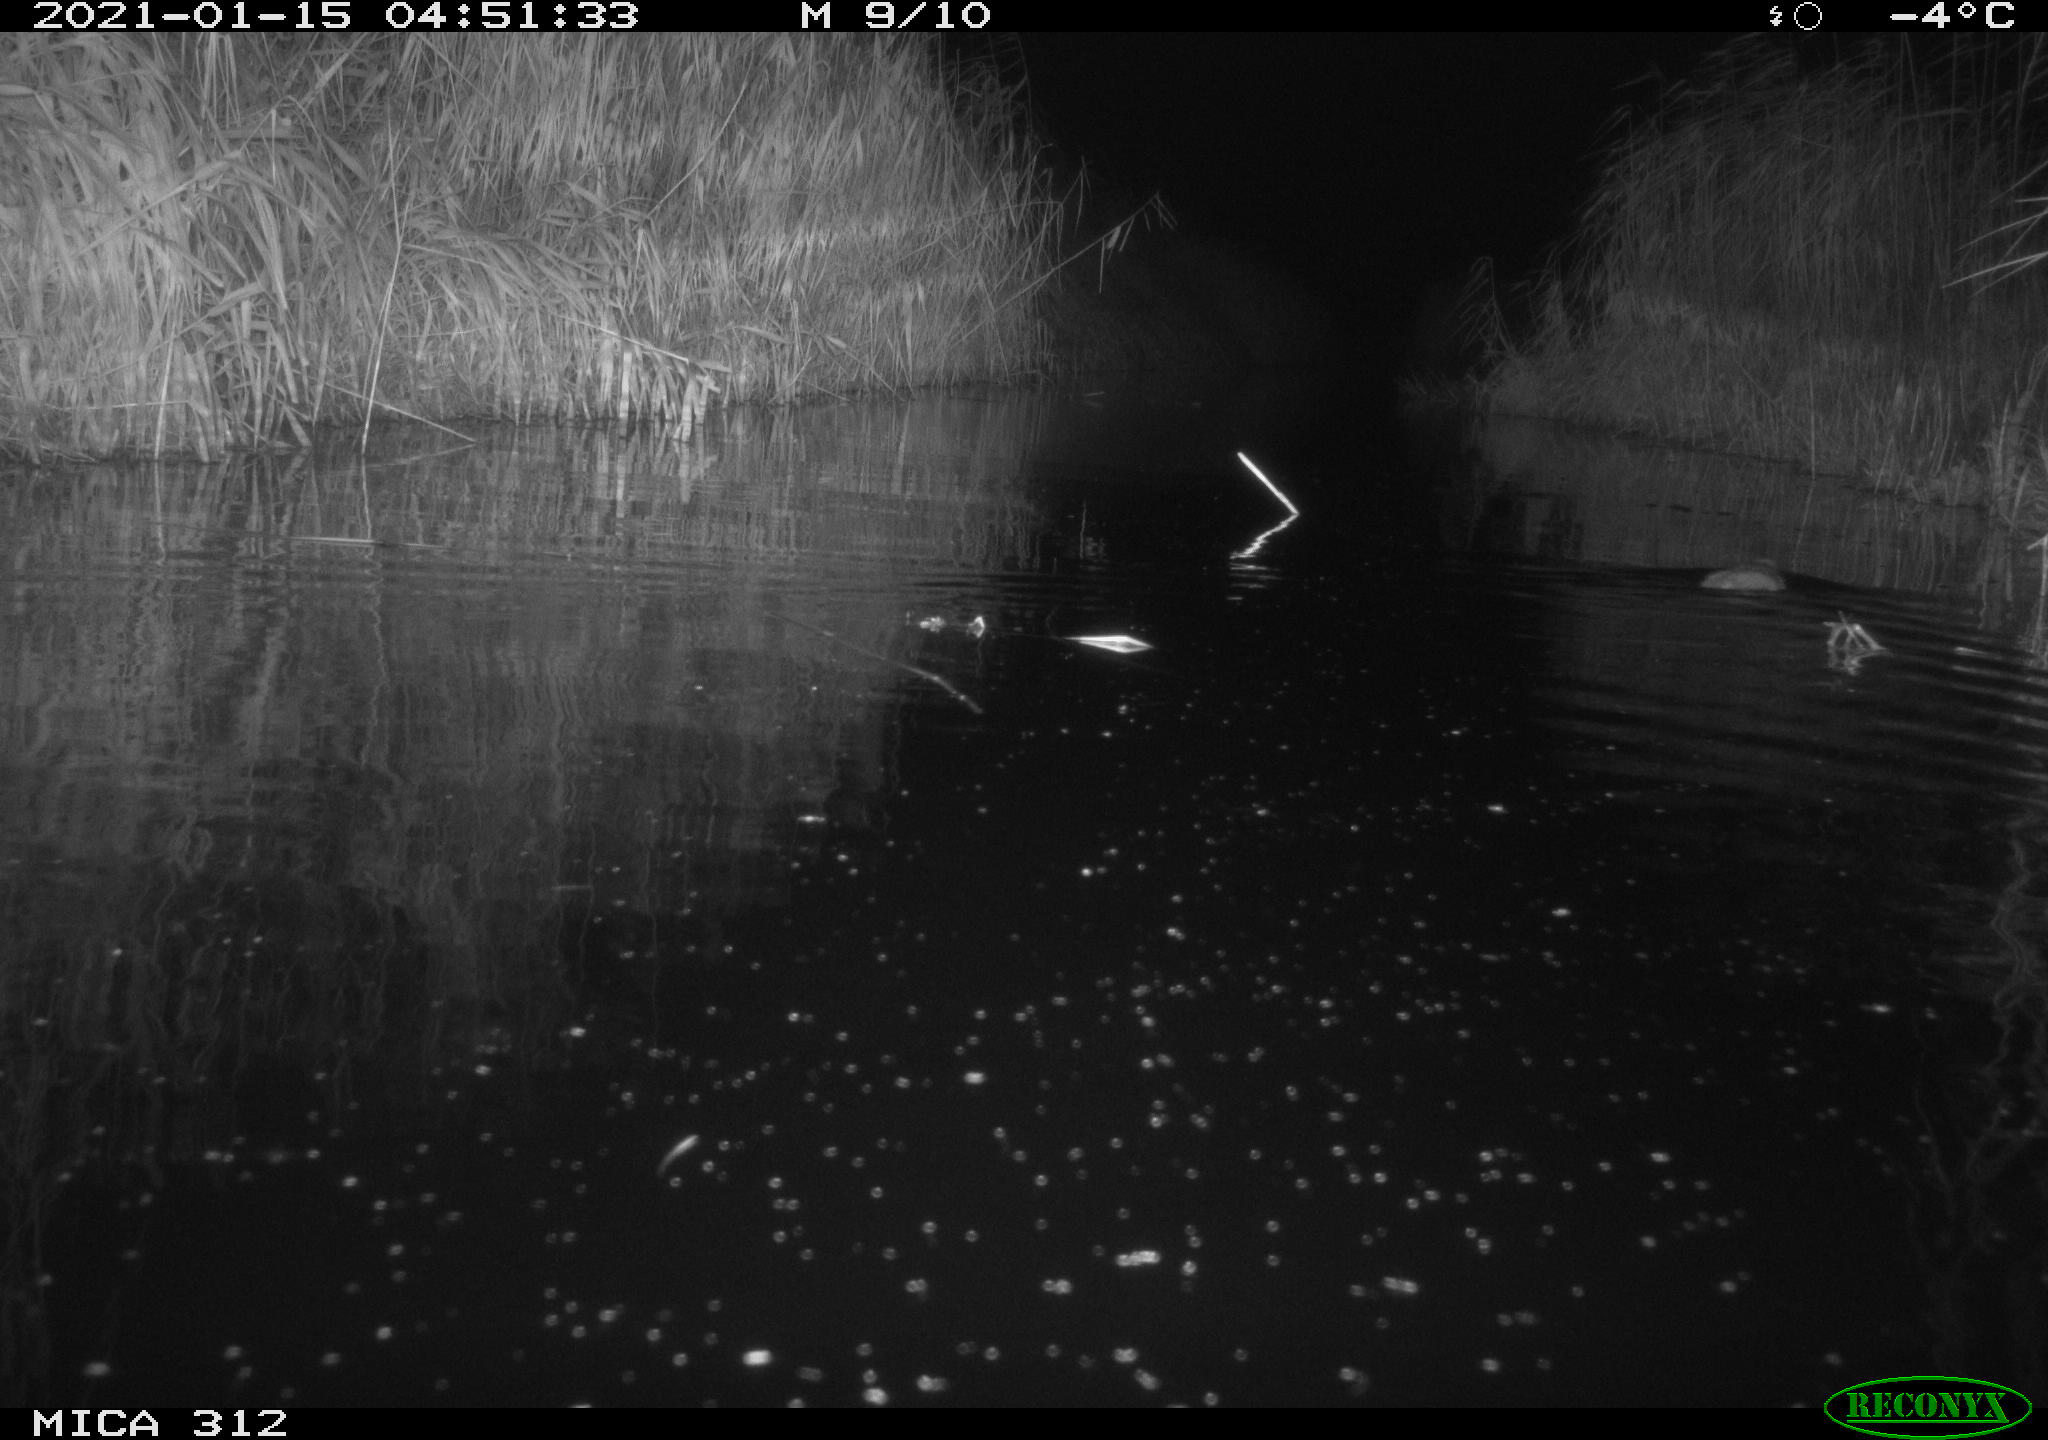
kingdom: Animalia
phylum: Chordata
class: Mammalia
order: Rodentia
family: Muridae
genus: Rattus
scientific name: Rattus norvegicus
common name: Brown rat
